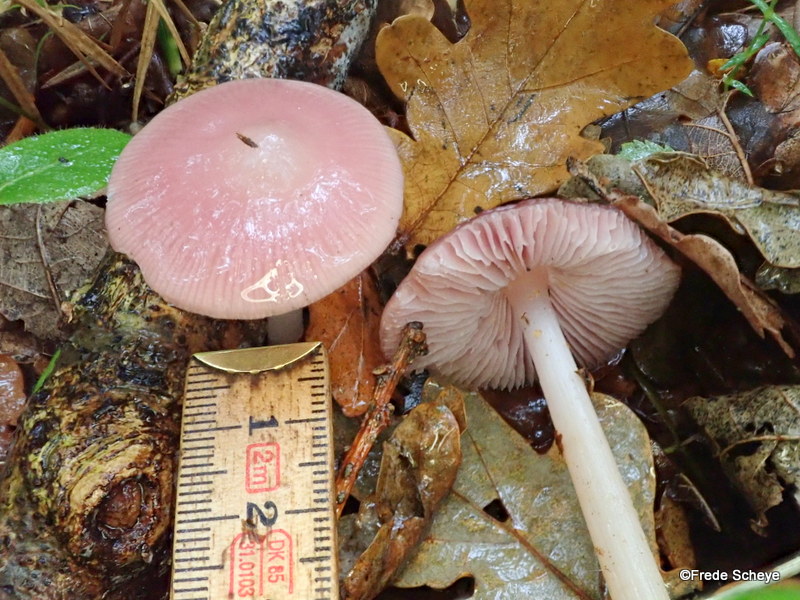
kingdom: Fungi
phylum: Basidiomycota
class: Agaricomycetes
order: Agaricales
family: Mycenaceae
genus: Mycena
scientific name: Mycena rosea
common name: rosa huesvamp
